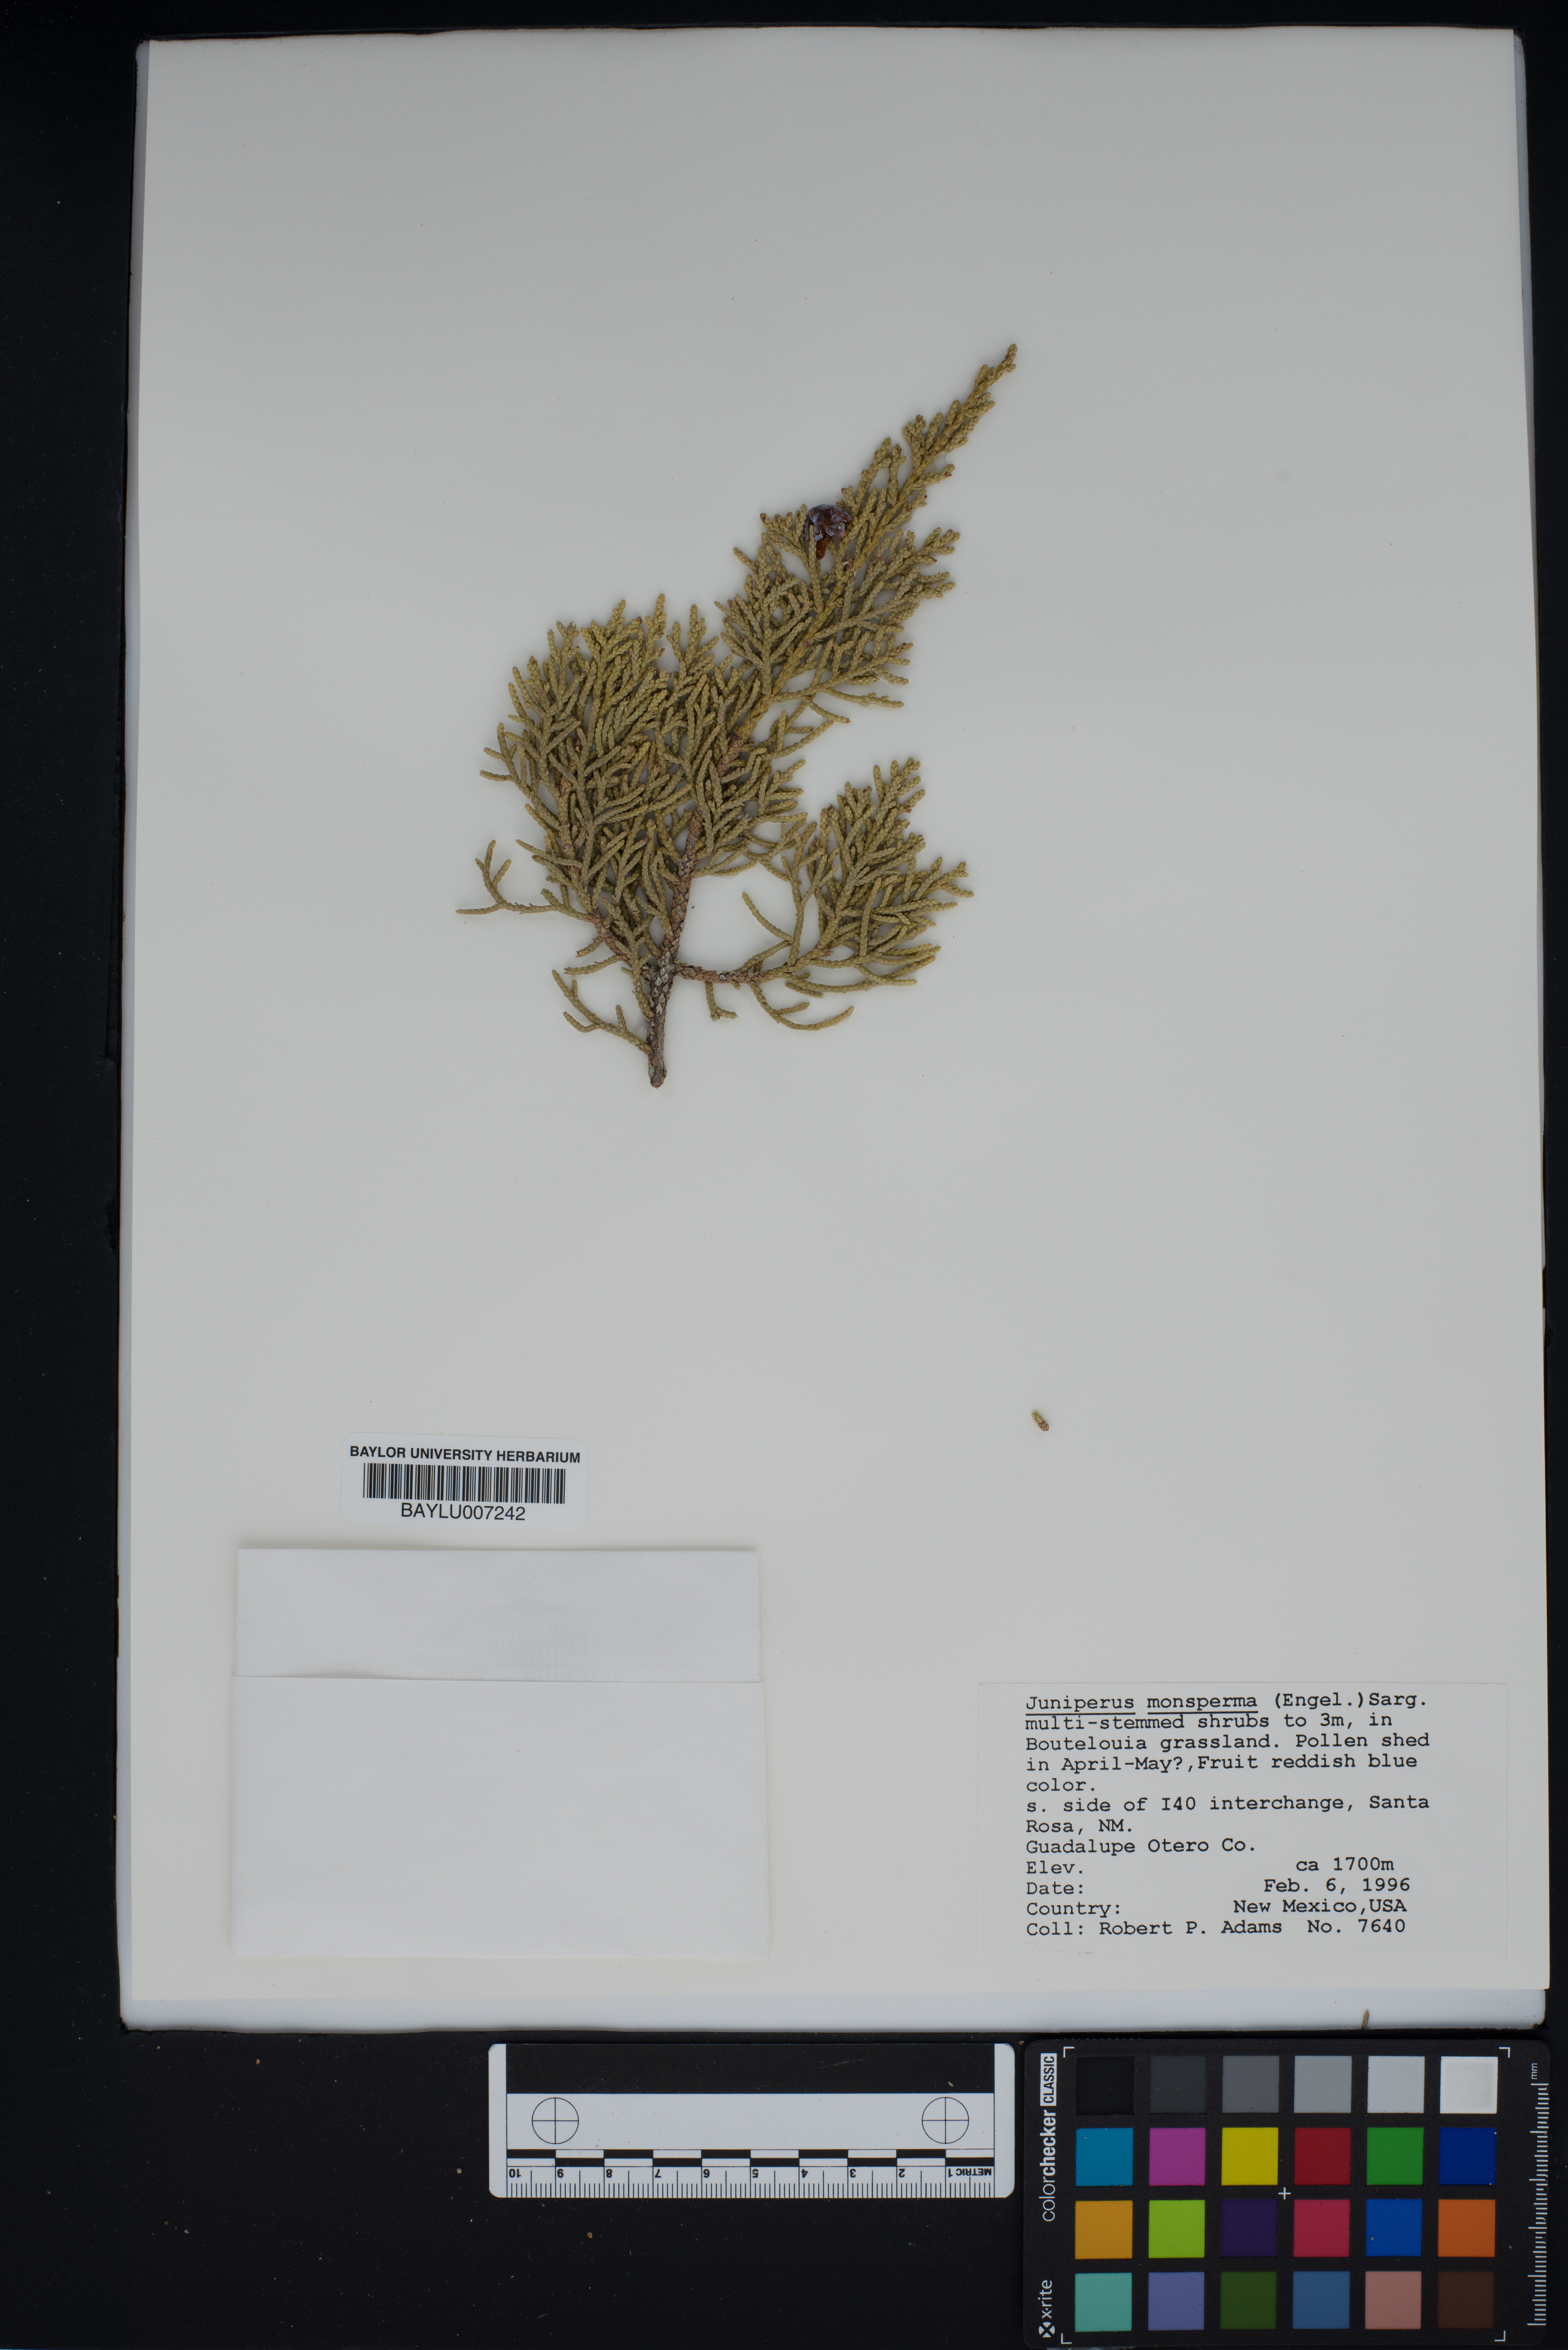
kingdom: Plantae
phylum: Tracheophyta
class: Pinopsida
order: Pinales
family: Cupressaceae
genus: Juniperus
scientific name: Juniperus monosperma
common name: One-seed juniper
